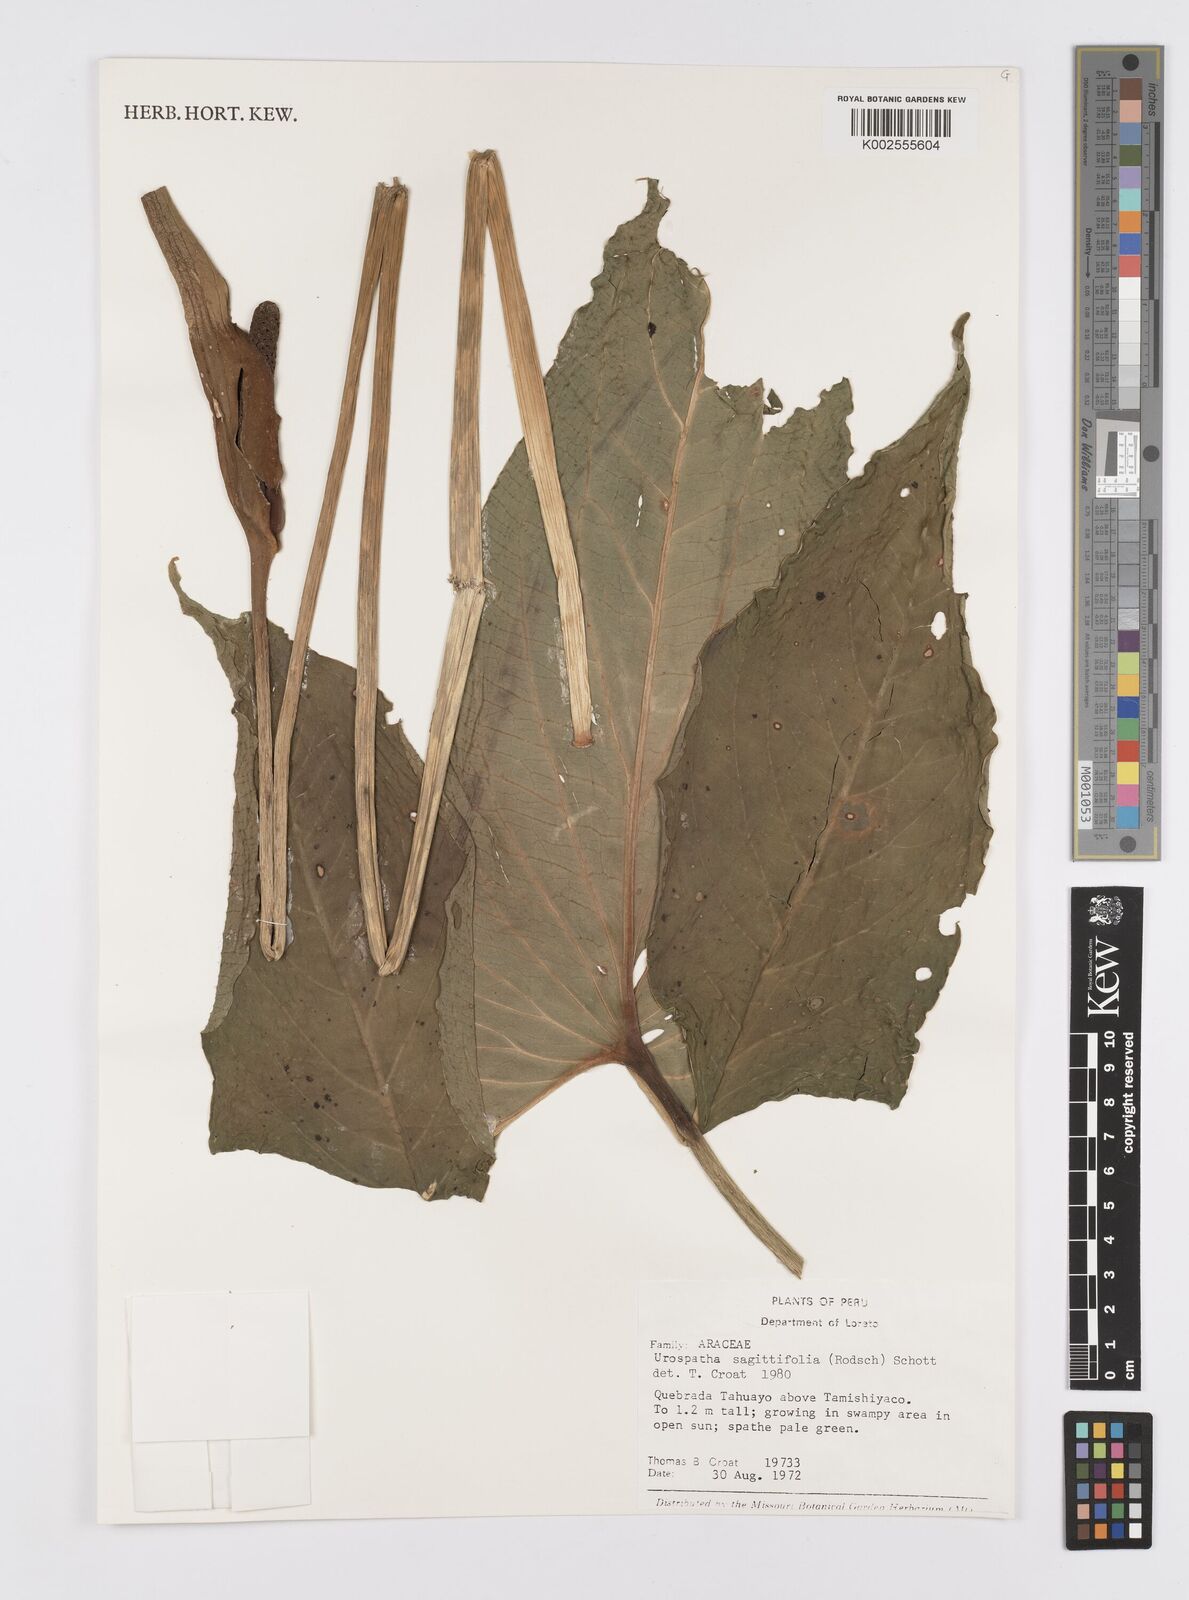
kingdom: Plantae
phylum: Tracheophyta
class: Liliopsida
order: Alismatales
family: Araceae
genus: Urospatha
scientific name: Urospatha sagittifolia
